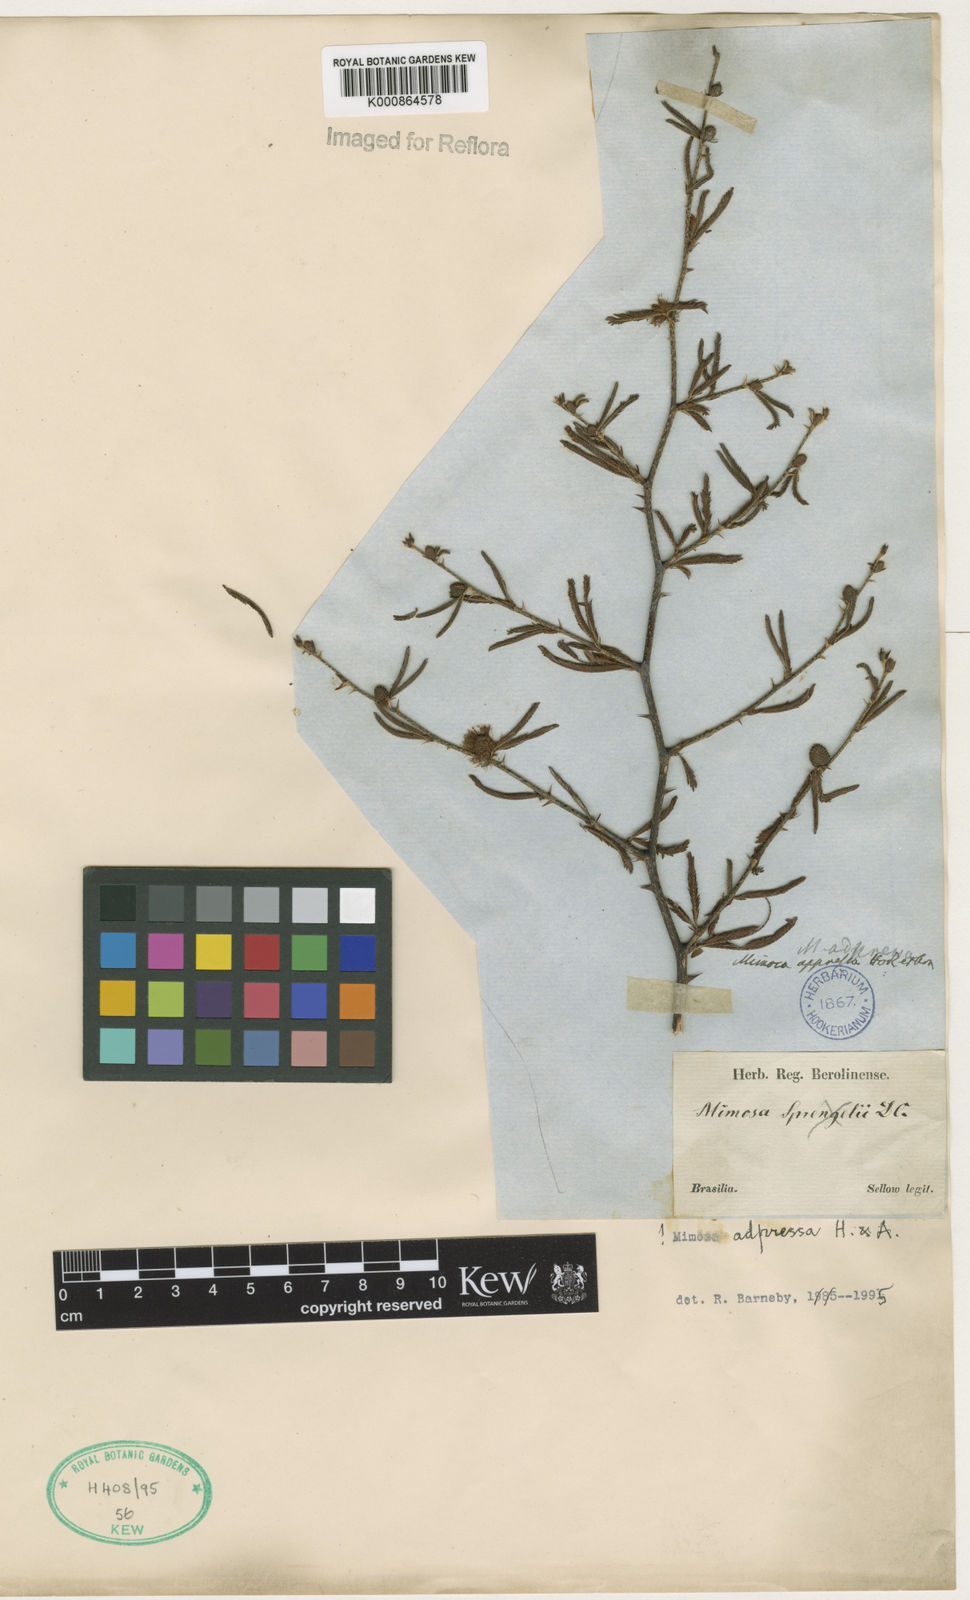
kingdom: Plantae
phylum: Tracheophyta
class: Magnoliopsida
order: Fabales
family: Fabaceae
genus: Mimosa
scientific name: Mimosa adpressa
